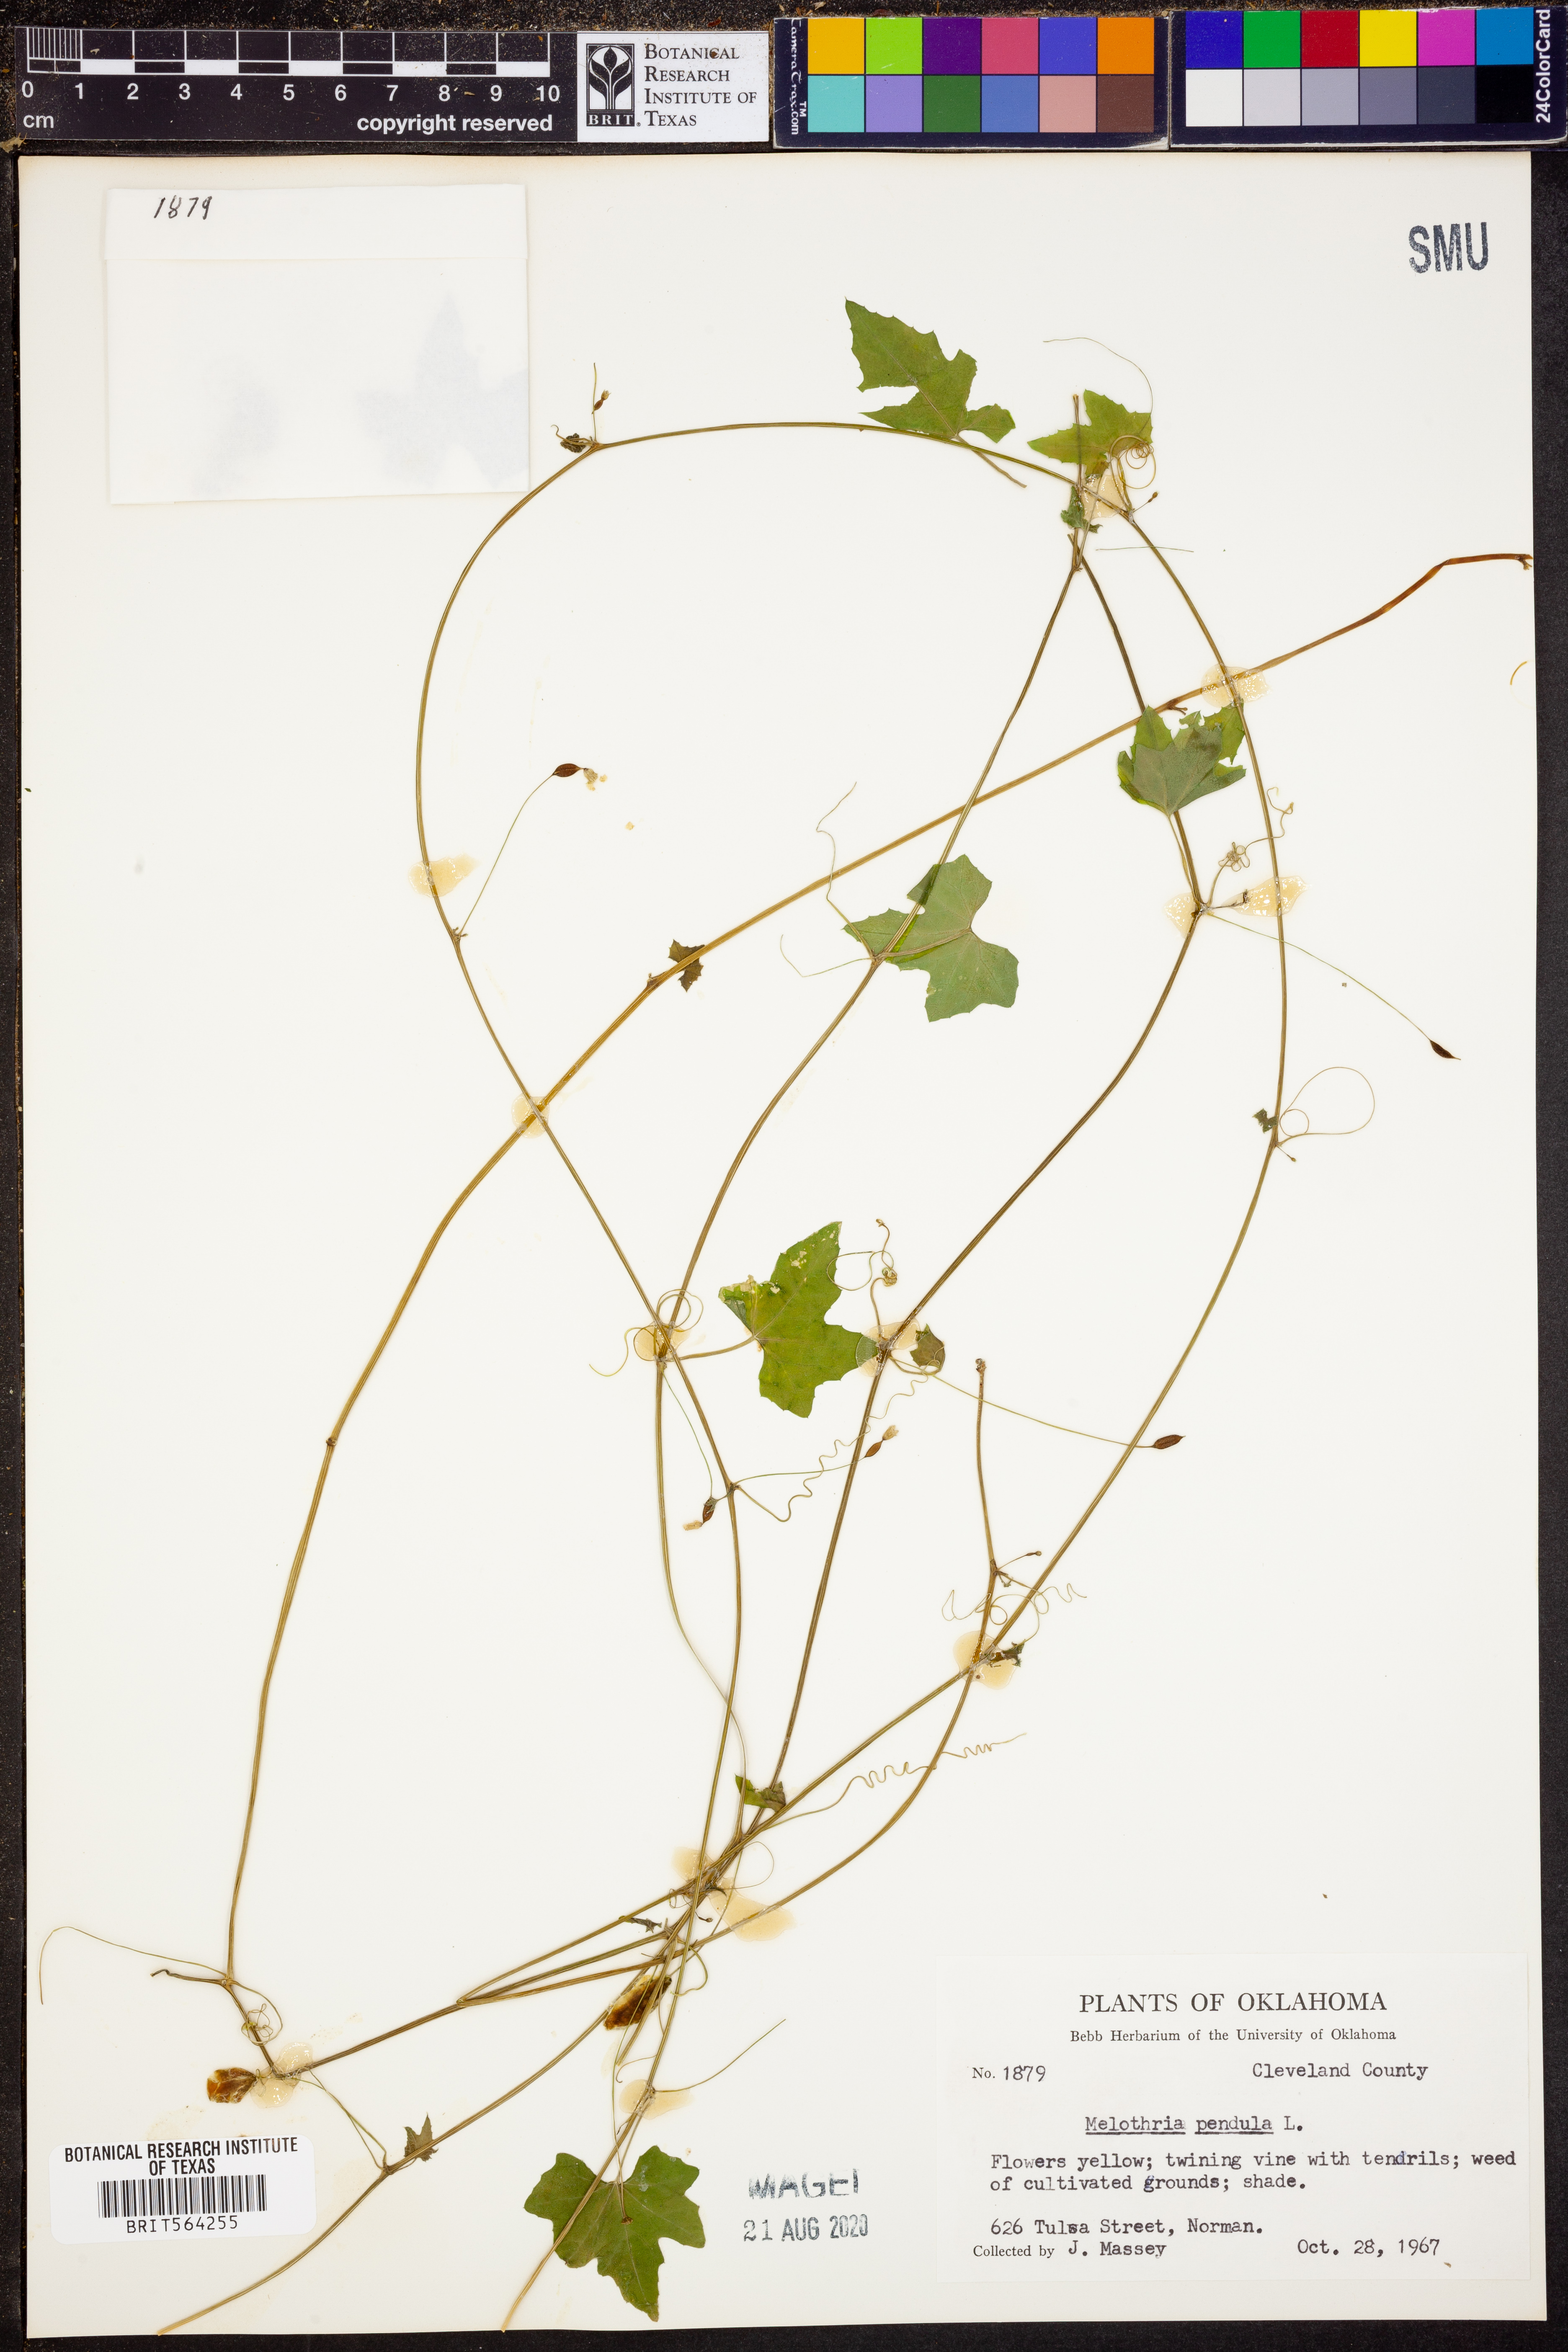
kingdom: Plantae
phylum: Tracheophyta
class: Magnoliopsida
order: Cucurbitales
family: Cucurbitaceae
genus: Melothria
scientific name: Melothria pendula
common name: Creeping-cucumber
